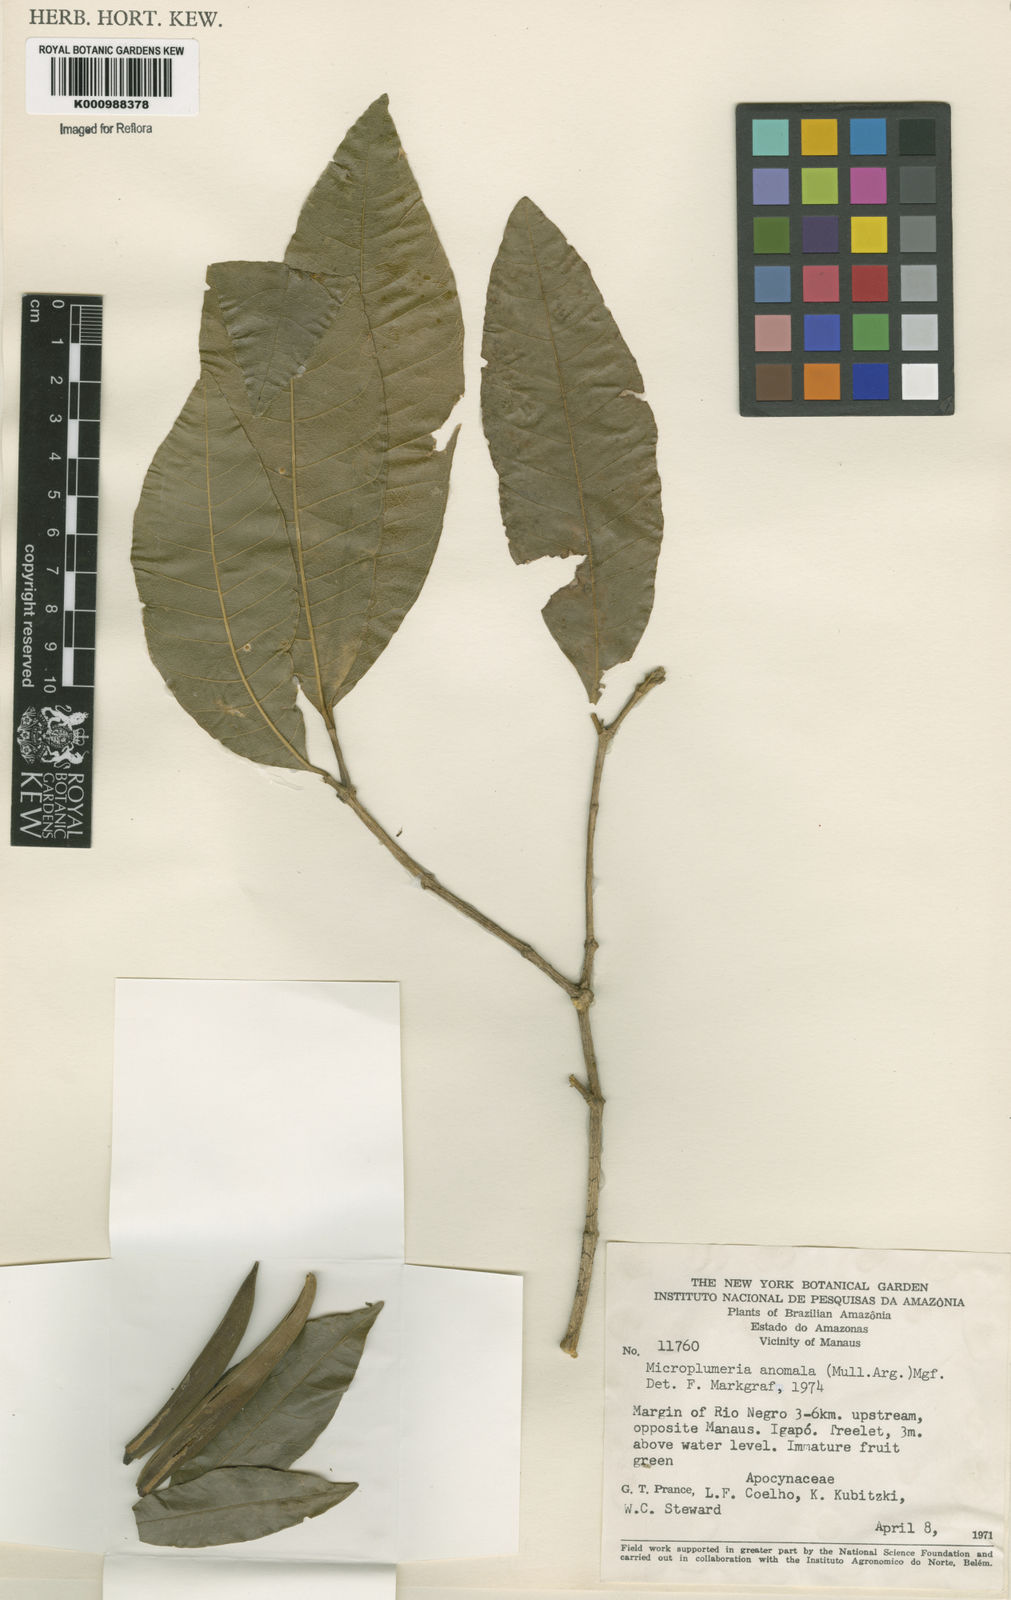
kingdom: Plantae
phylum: Tracheophyta
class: Magnoliopsida
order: Gentianales
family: Apocynaceae
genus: Microplumeria
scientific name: Microplumeria
